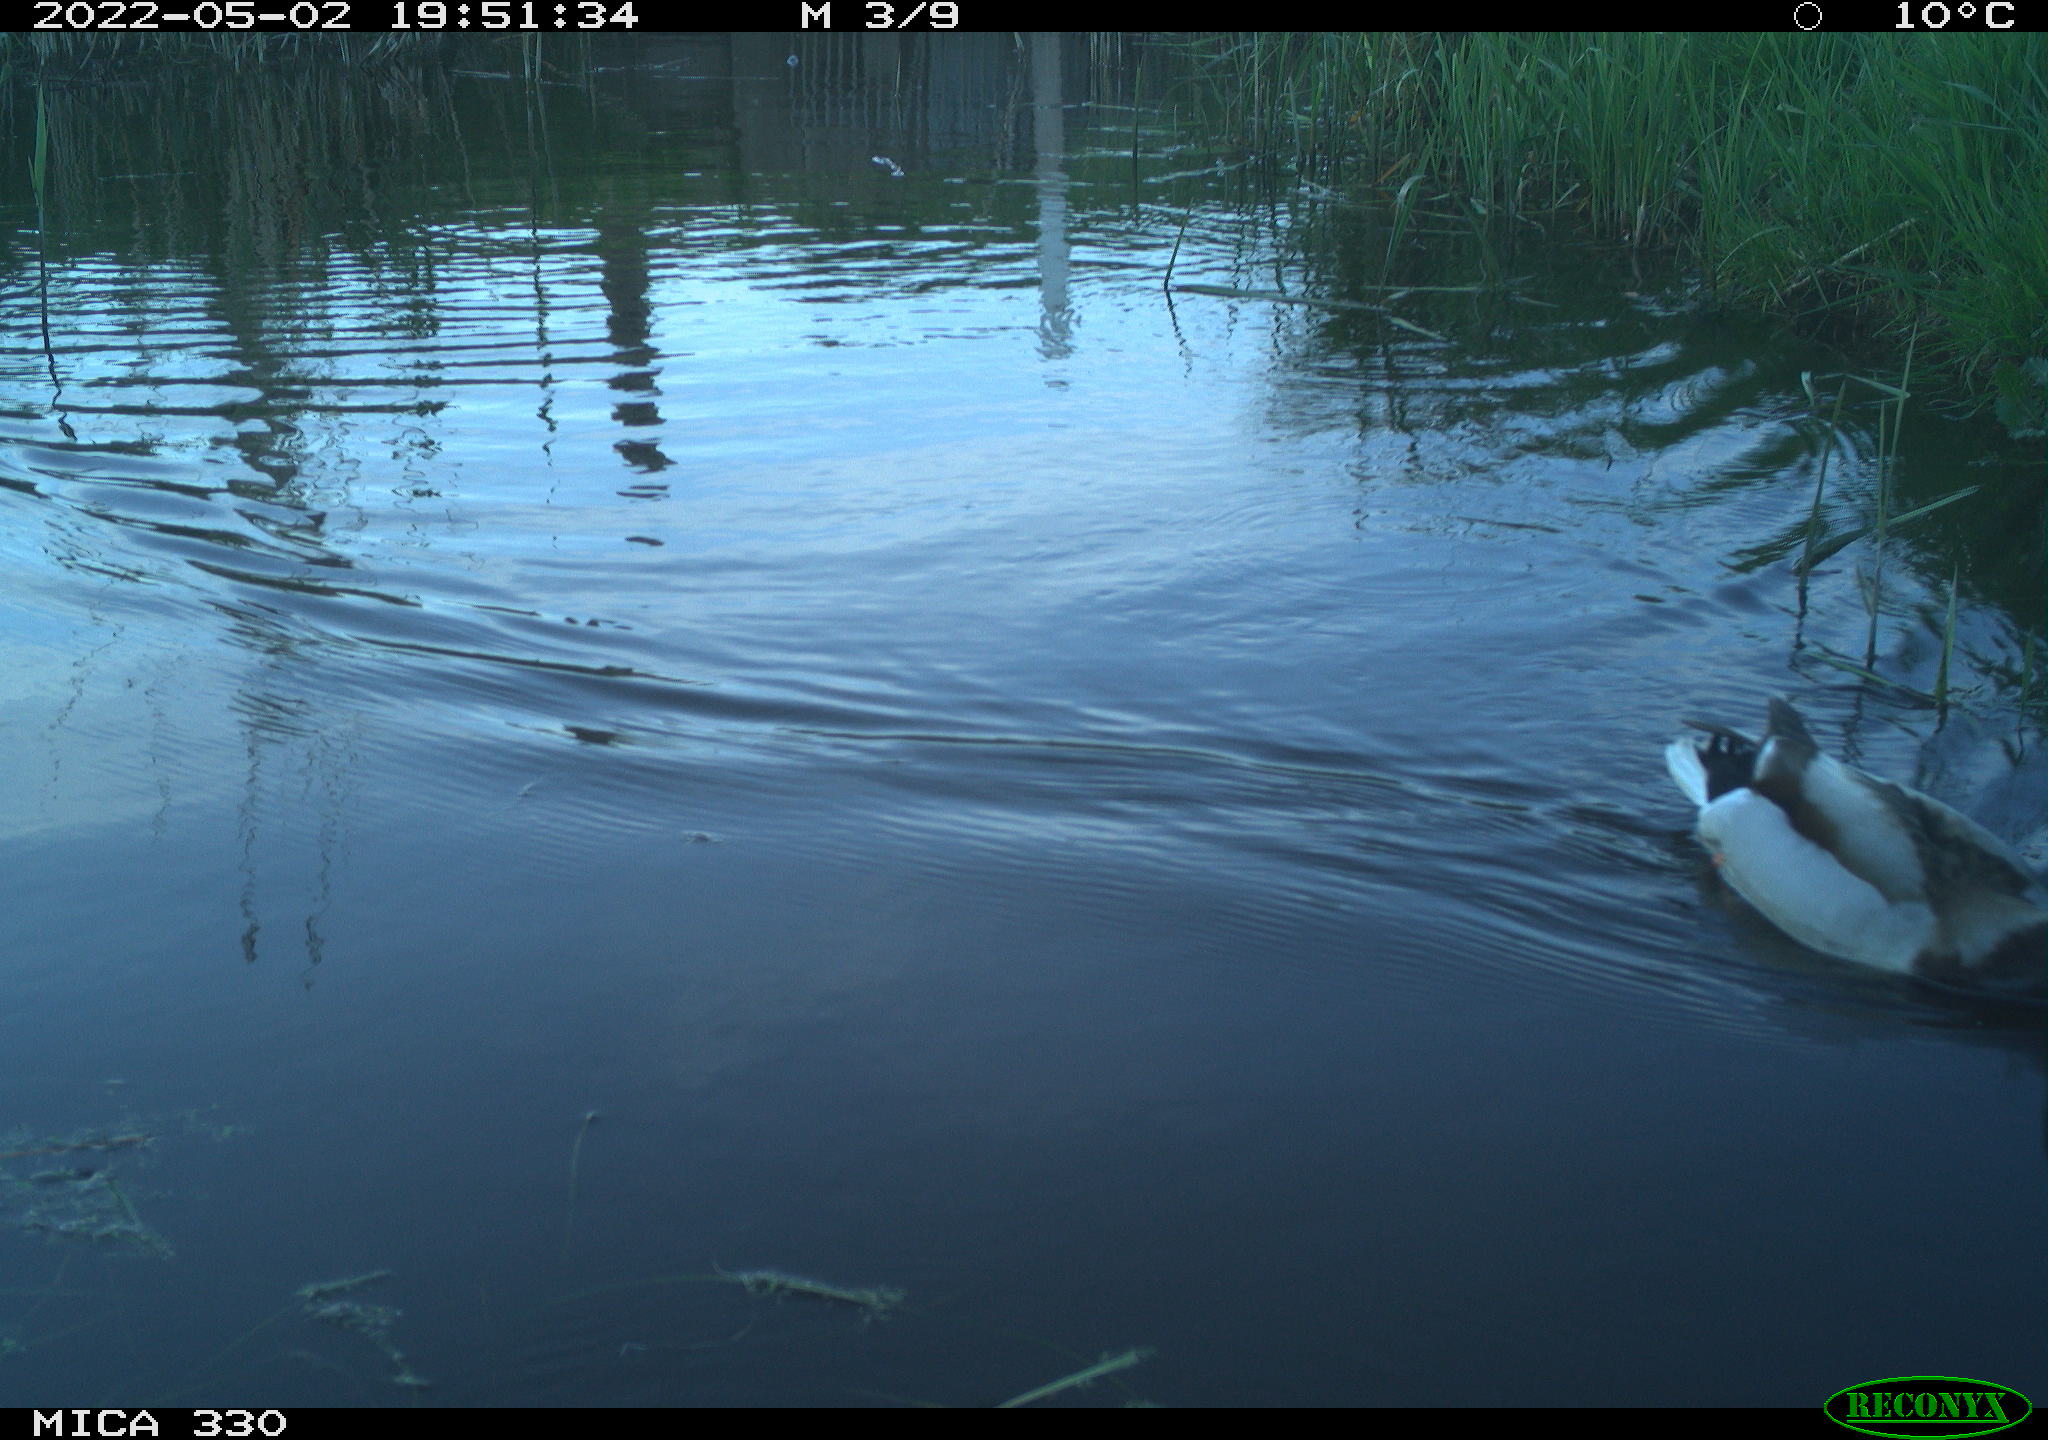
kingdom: Animalia
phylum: Chordata
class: Aves
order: Anseriformes
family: Anatidae
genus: Anas
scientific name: Anas platyrhynchos
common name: Mallard
